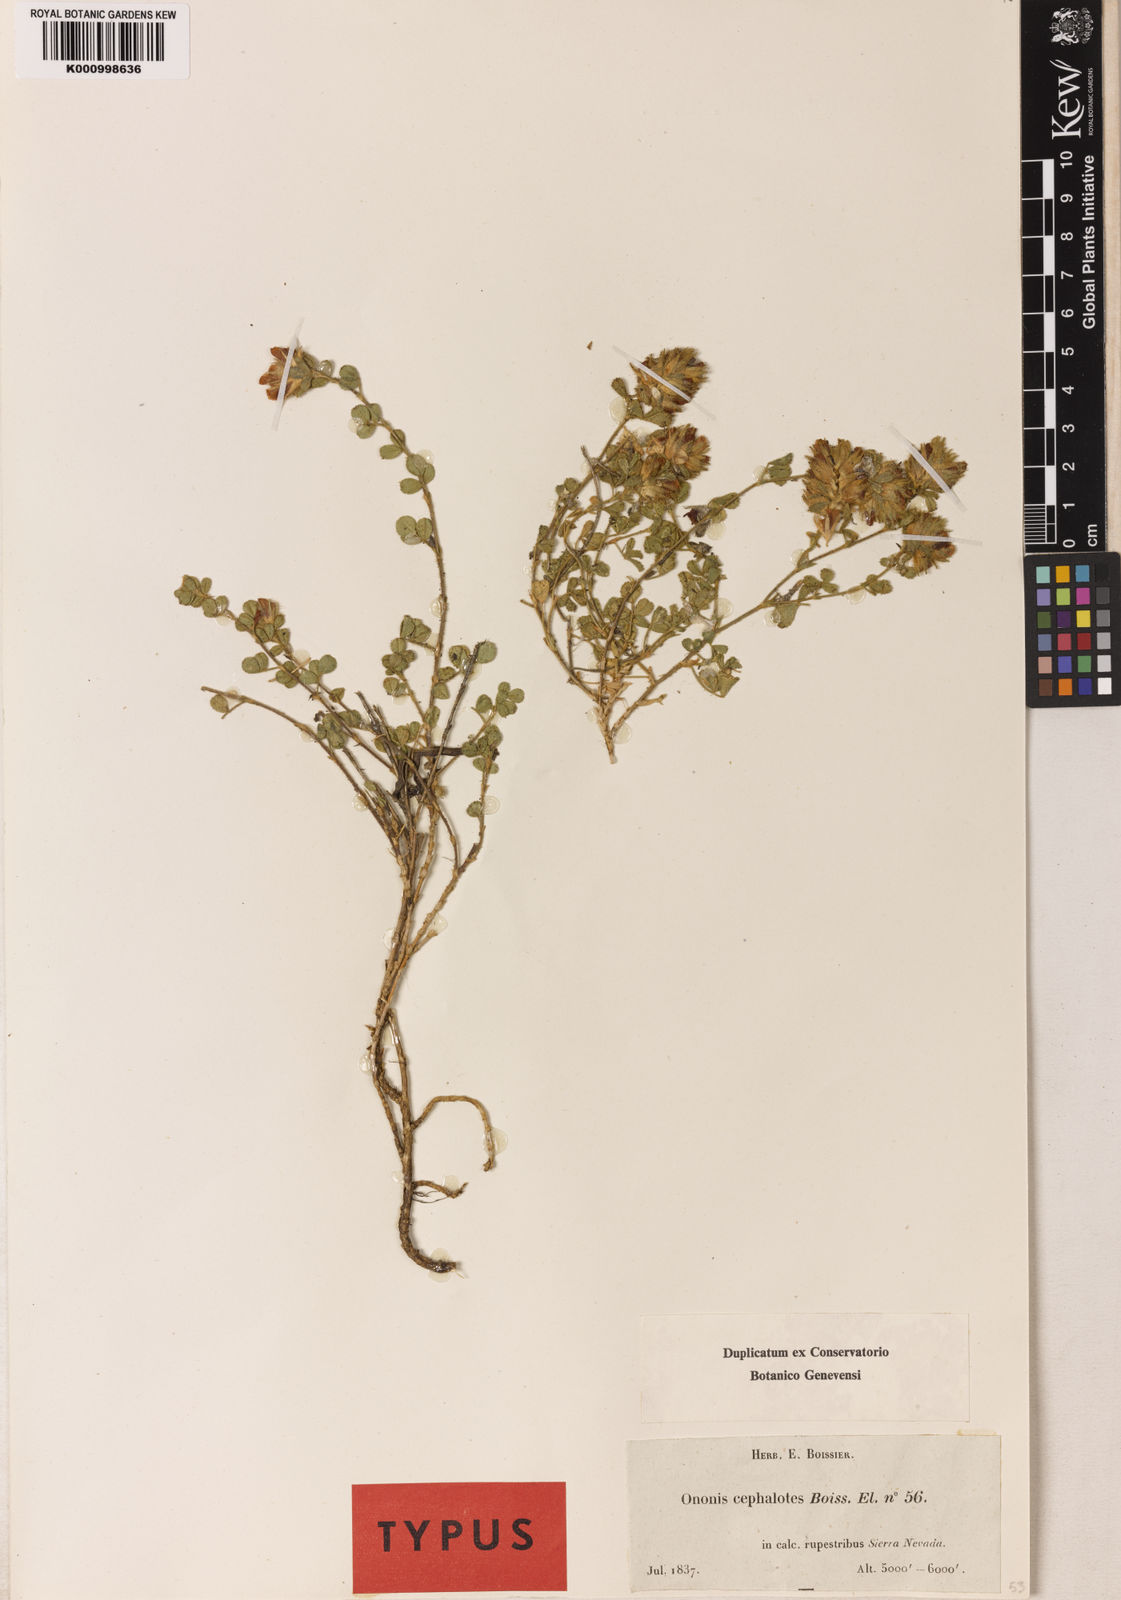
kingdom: Plantae
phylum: Tracheophyta
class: Magnoliopsida
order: Fabales
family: Fabaceae
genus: Ononis
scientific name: Ononis cephalotes
